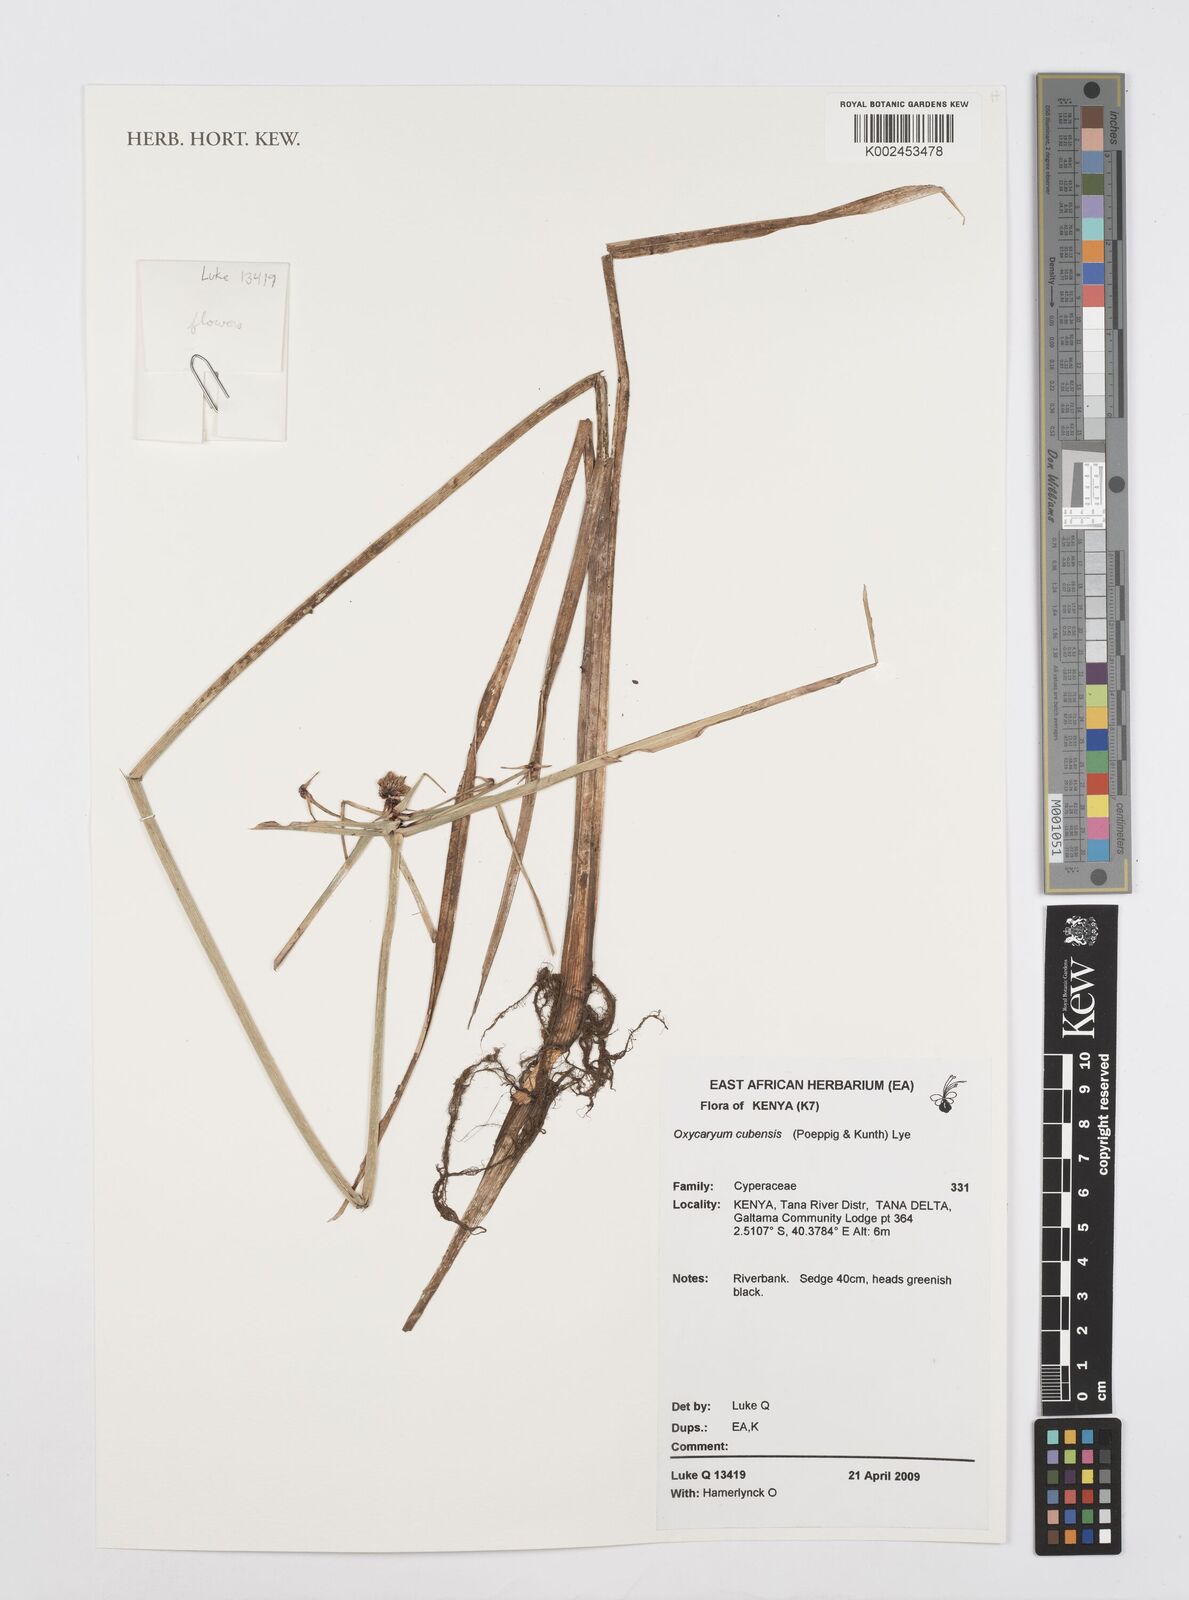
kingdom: Plantae
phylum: Tracheophyta
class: Liliopsida
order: Poales
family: Cyperaceae
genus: Cyperus
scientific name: Cyperus elegans
